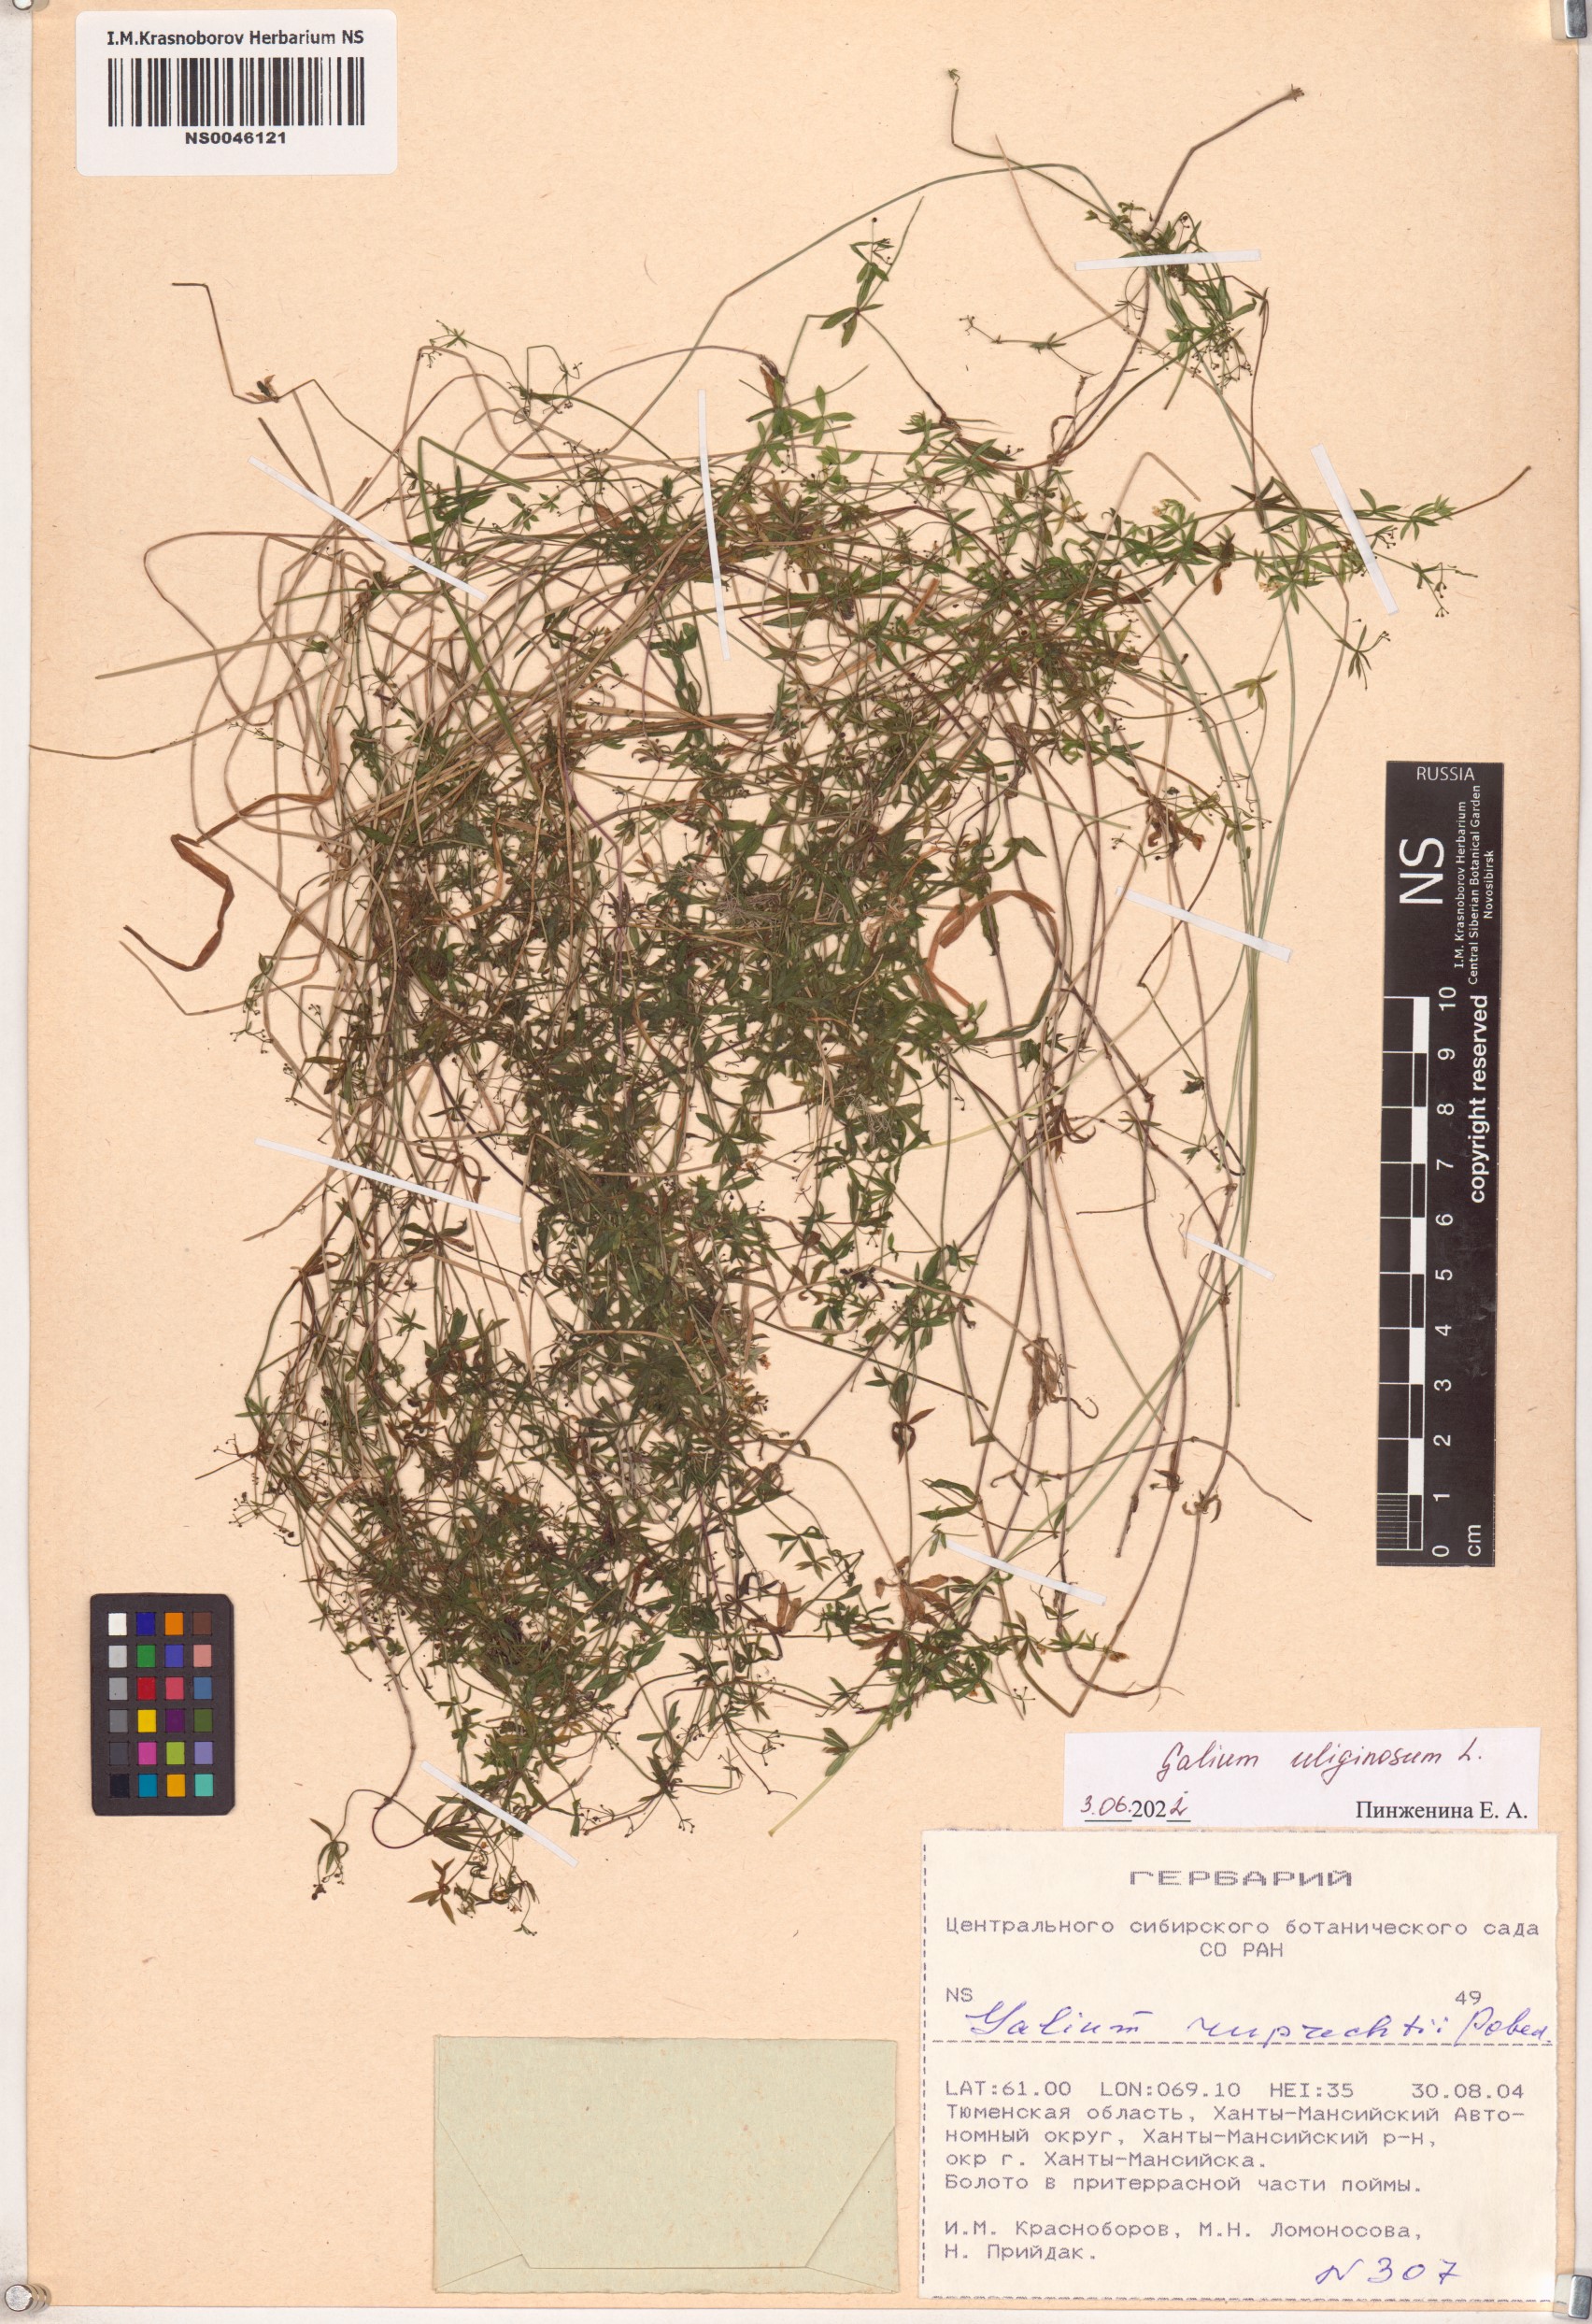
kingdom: Plantae
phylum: Tracheophyta
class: Magnoliopsida
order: Gentianales
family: Rubiaceae
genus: Galium
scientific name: Galium uliginosum
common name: Fen bedstraw
